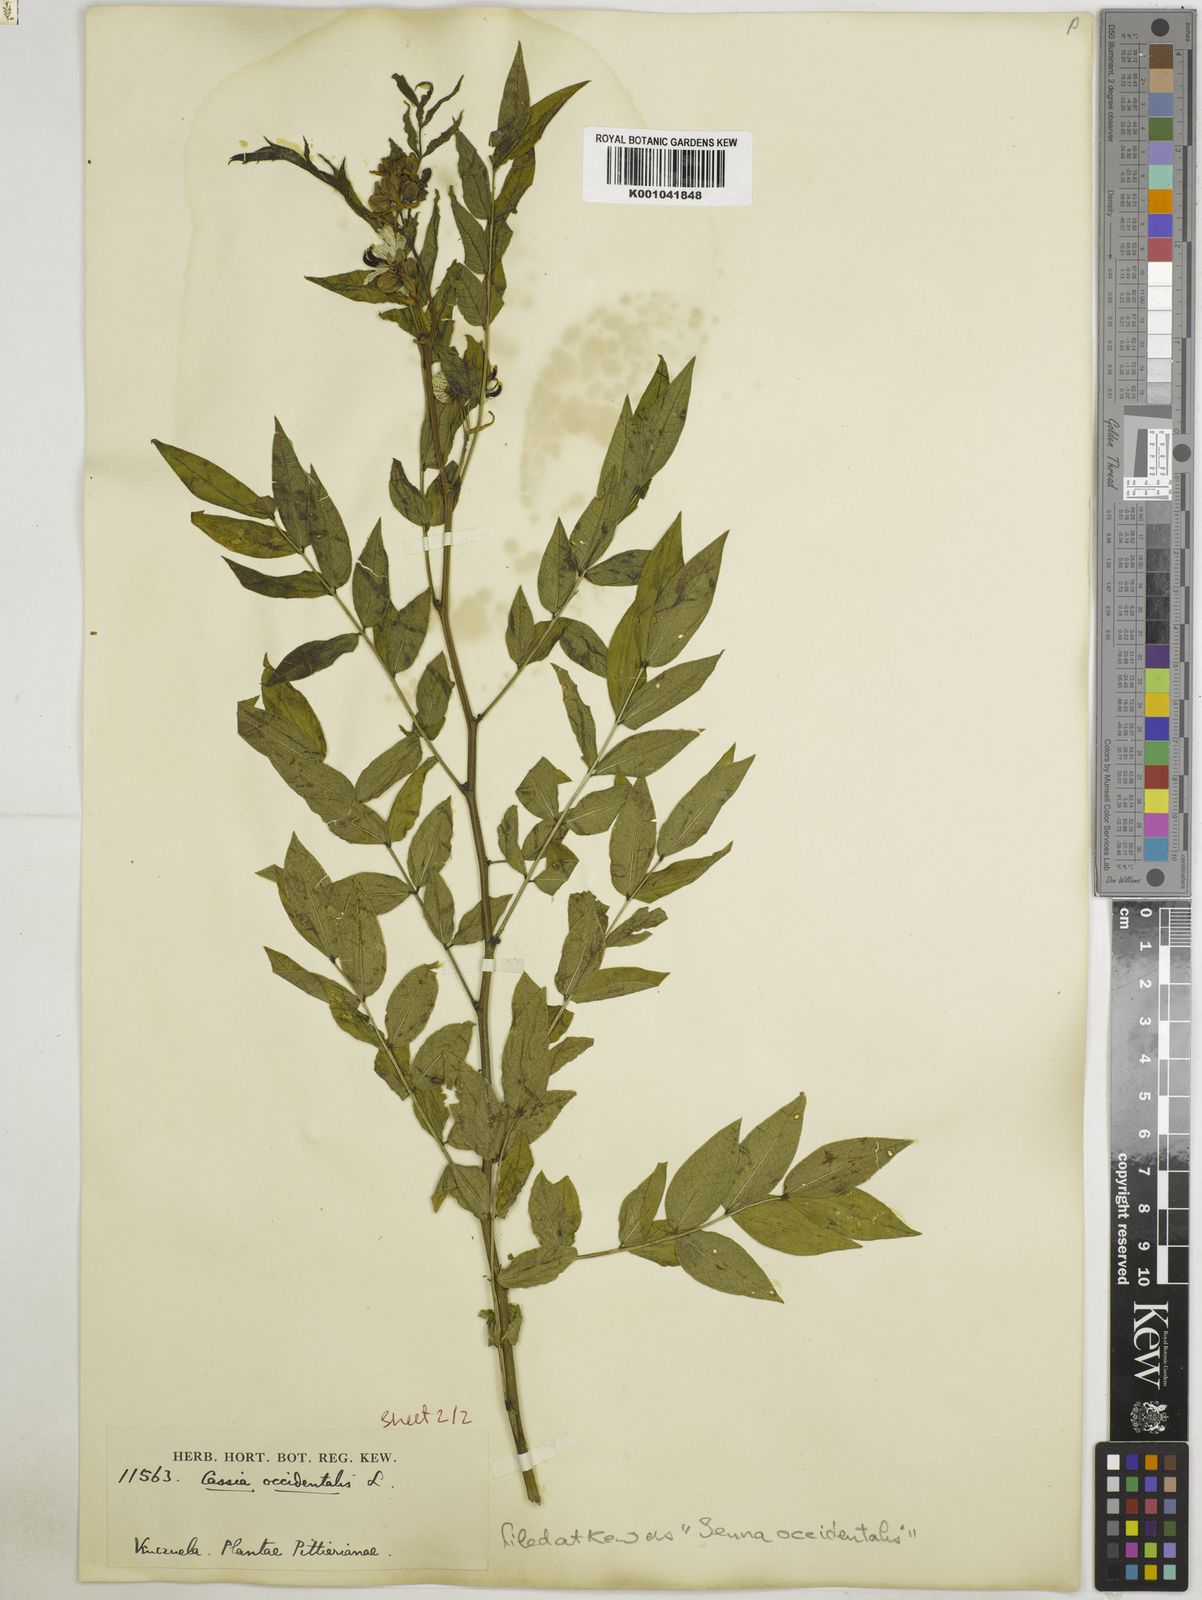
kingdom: Plantae
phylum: Tracheophyta
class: Magnoliopsida
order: Fabales
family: Fabaceae
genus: Senna
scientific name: Senna occidentalis
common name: Septicweed
